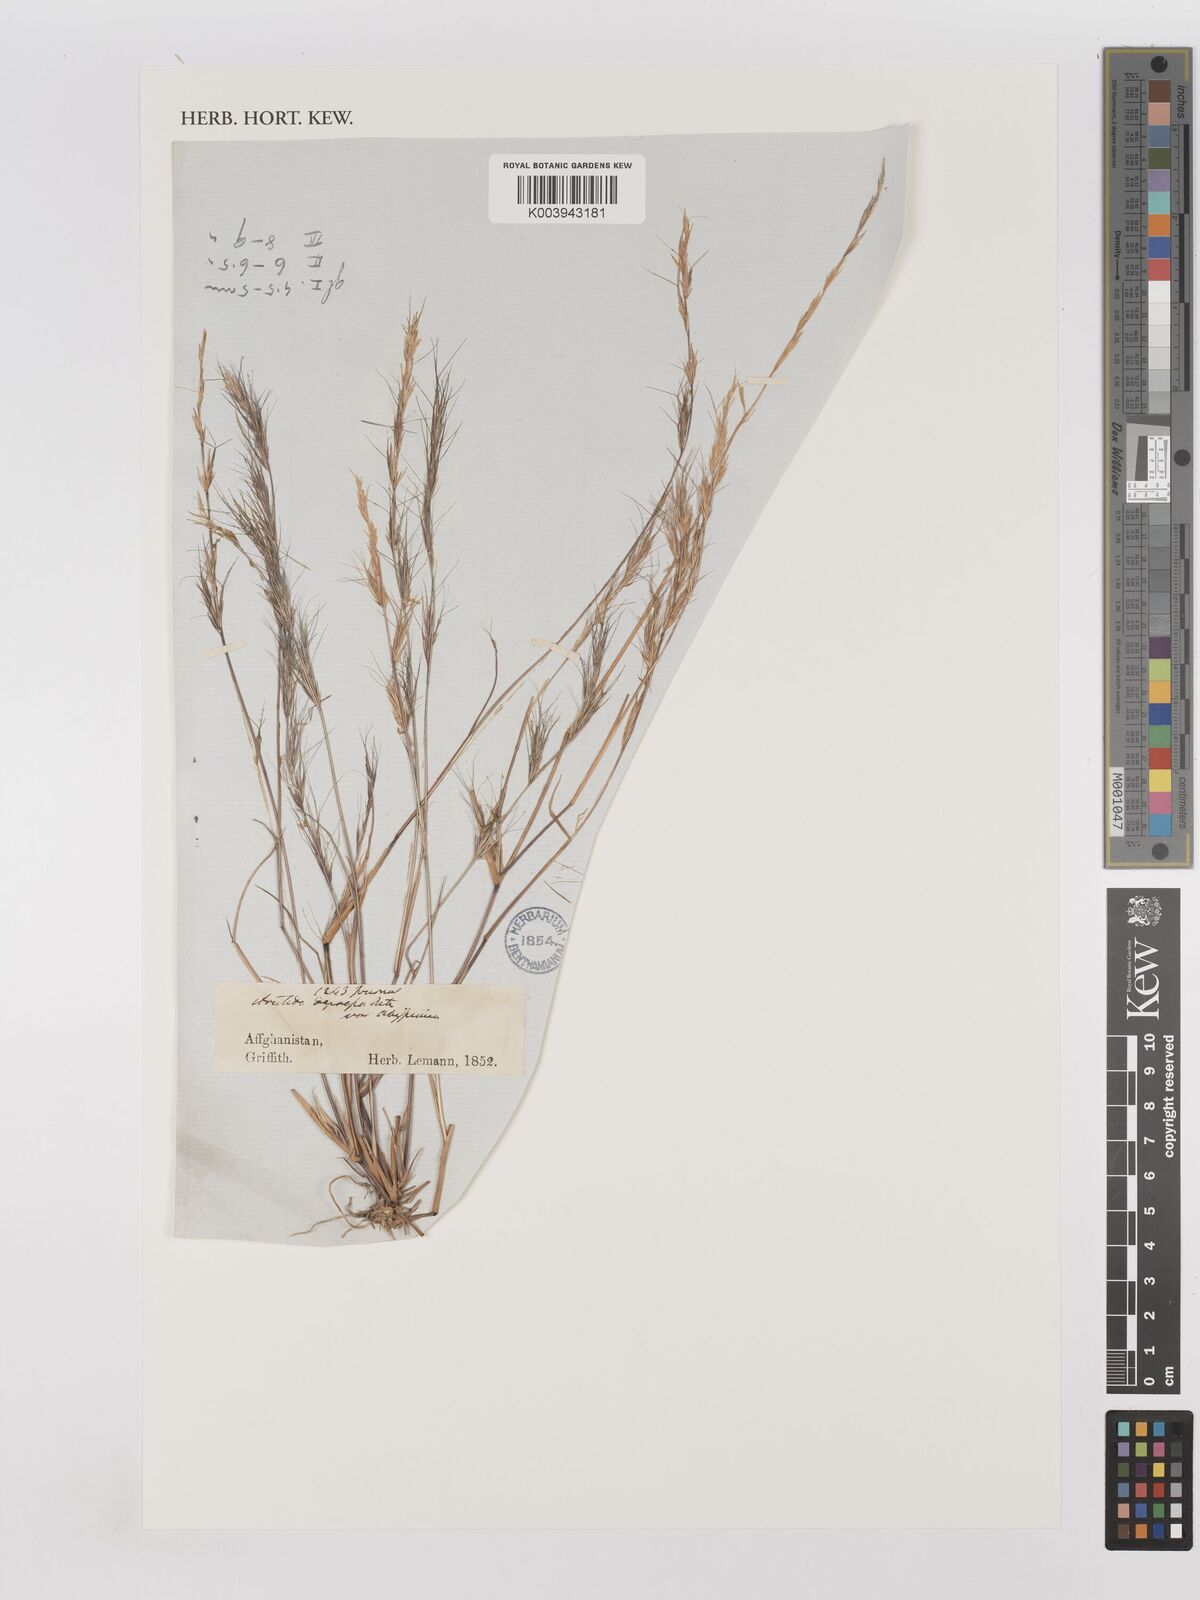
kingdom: Plantae
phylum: Tracheophyta
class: Liliopsida
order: Poales
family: Poaceae
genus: Aristida
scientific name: Aristida adscensionis
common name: Sixweeks threeawn
